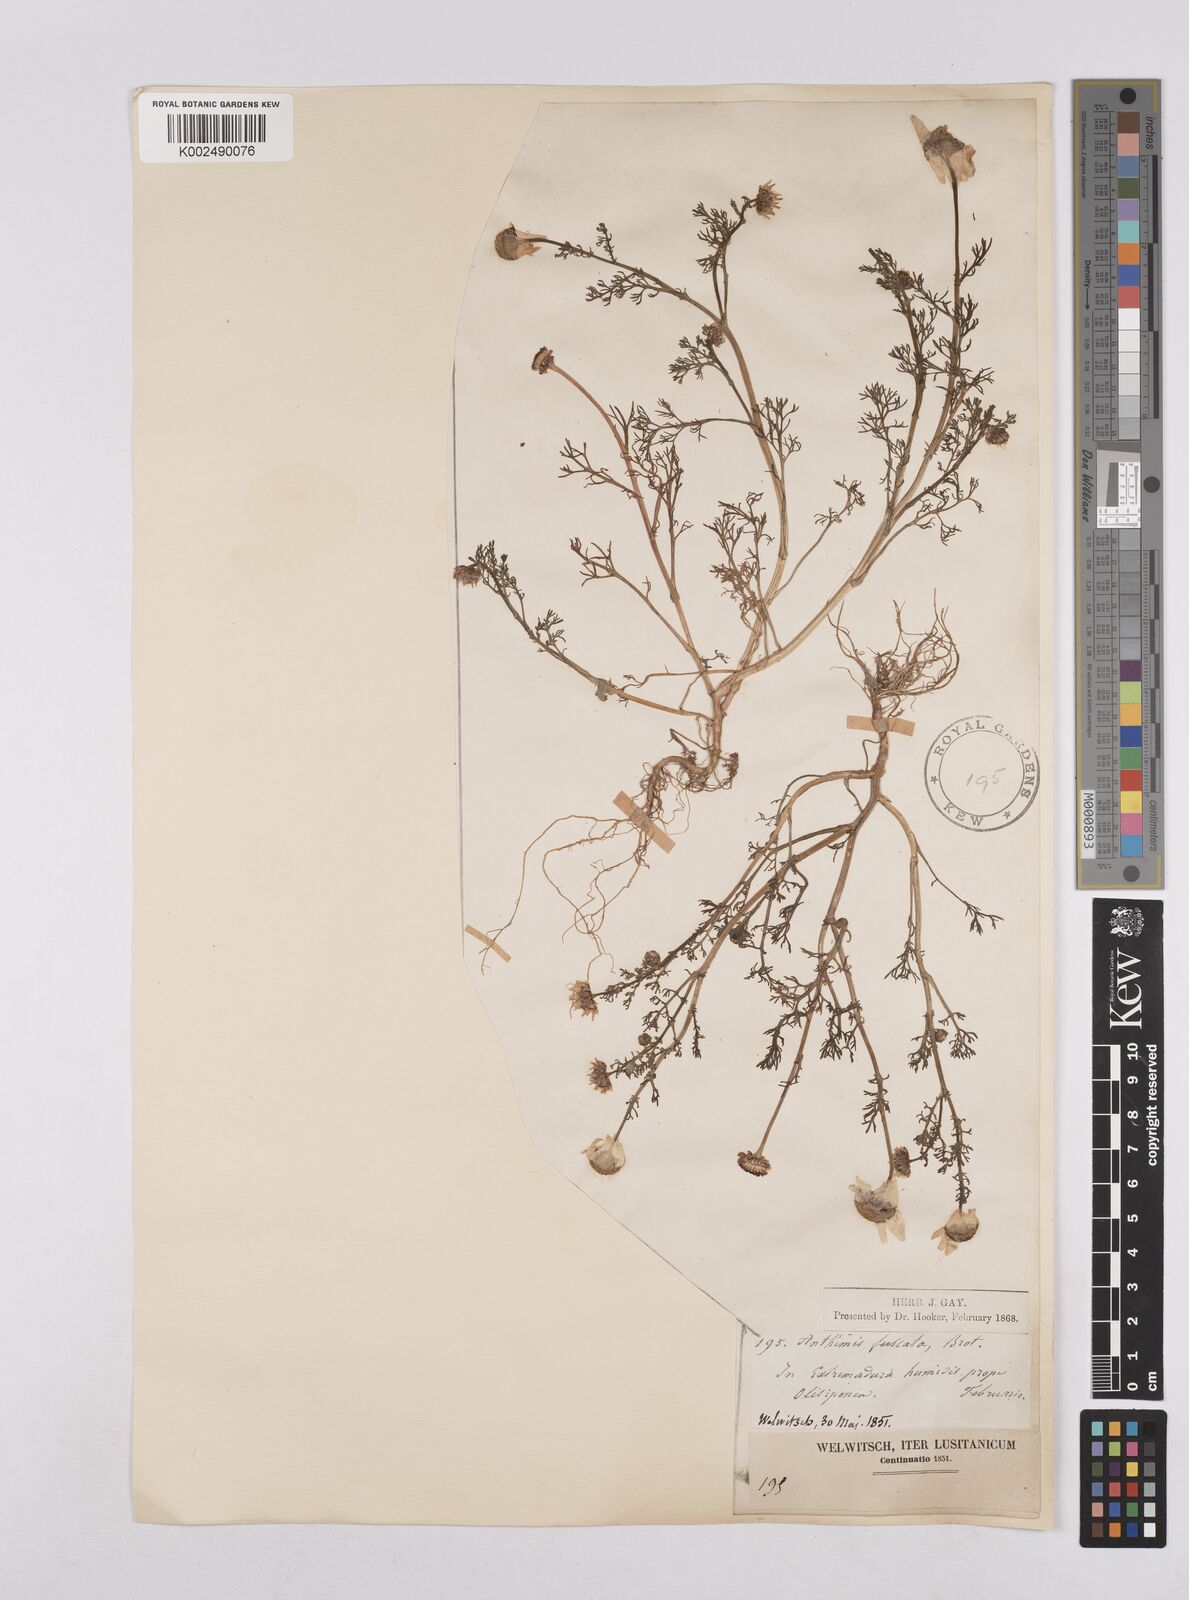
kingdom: Plantae
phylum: Tracheophyta
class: Magnoliopsida
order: Asterales
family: Asteraceae
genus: Chamaemelum
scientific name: Chamaemelum fuscatum
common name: Chamomile
